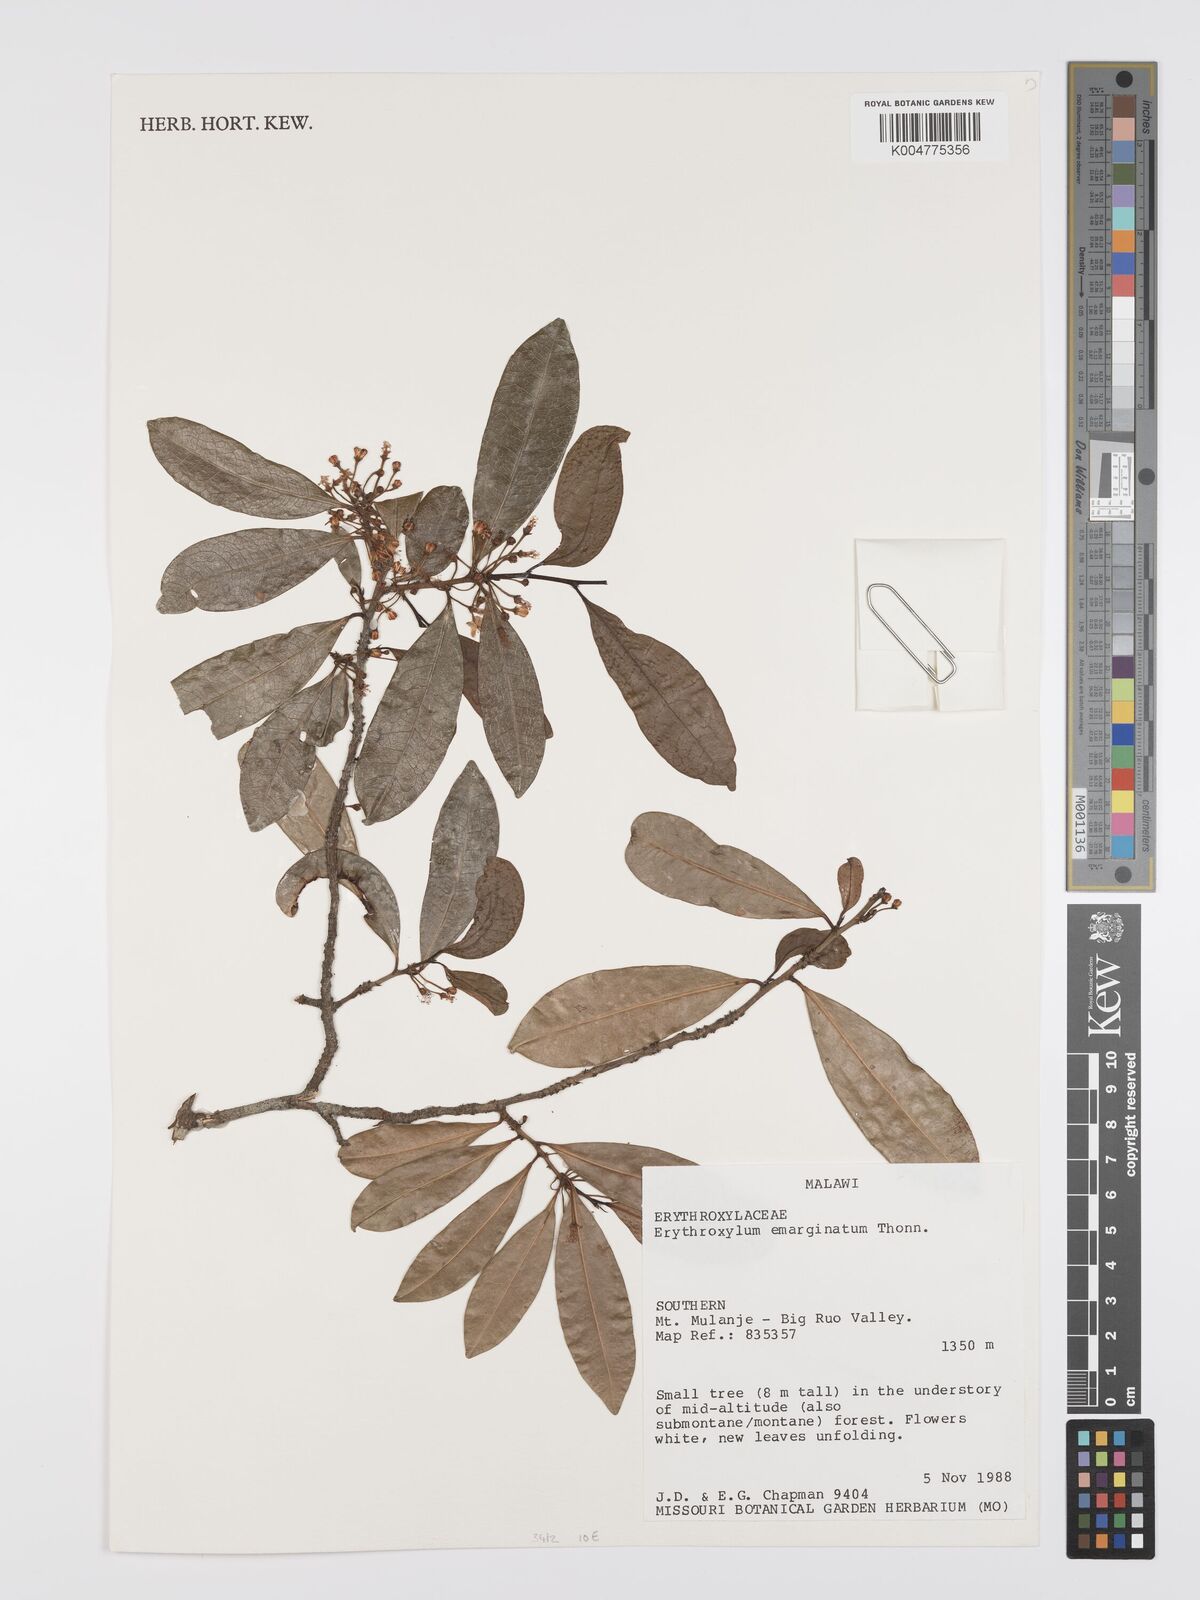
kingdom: Plantae
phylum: Tracheophyta
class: Magnoliopsida
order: Malpighiales
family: Erythroxylaceae
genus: Erythroxylum
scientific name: Erythroxylum emarginatum
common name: African coca-tree
